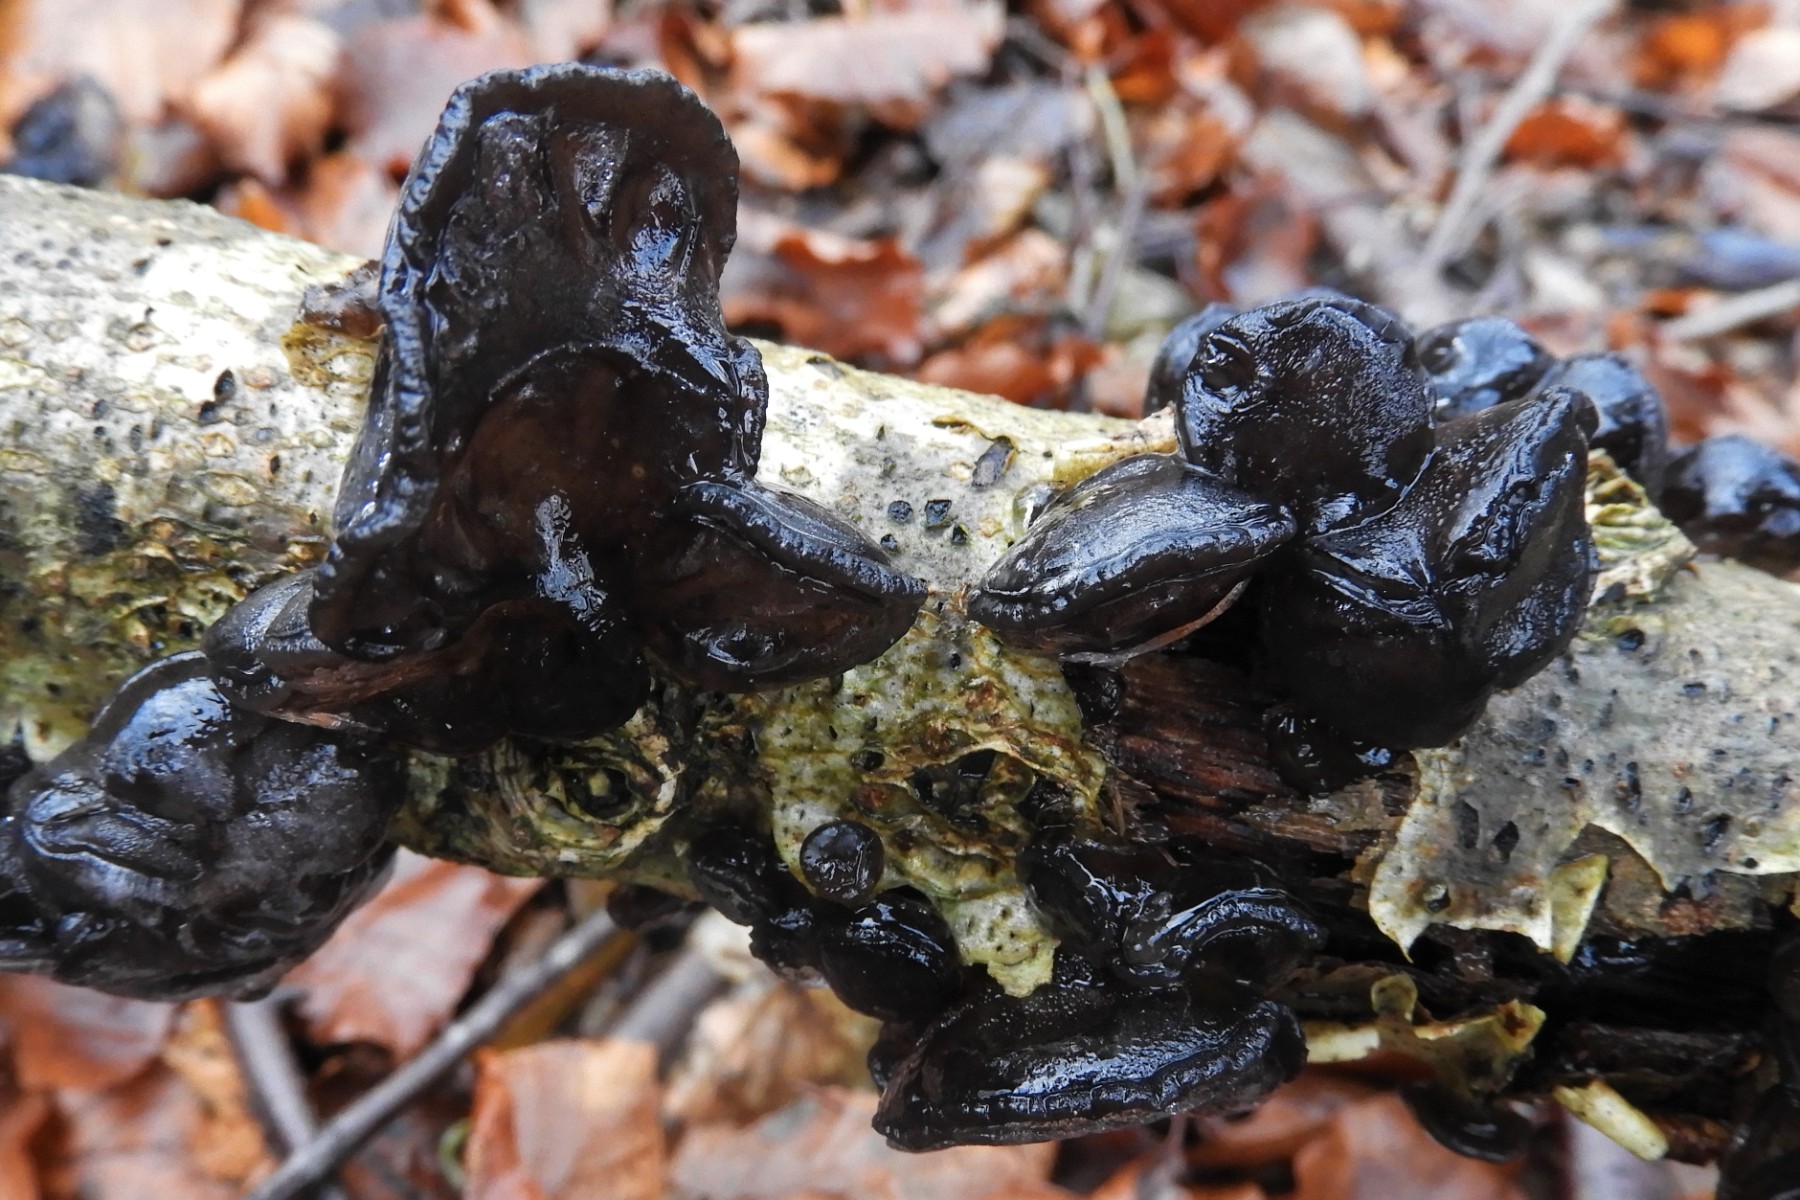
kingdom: Fungi
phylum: Basidiomycota
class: Agaricomycetes
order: Auriculariales
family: Auriculariaceae
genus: Exidia
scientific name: Exidia glandulosa
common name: ege-bævretop
